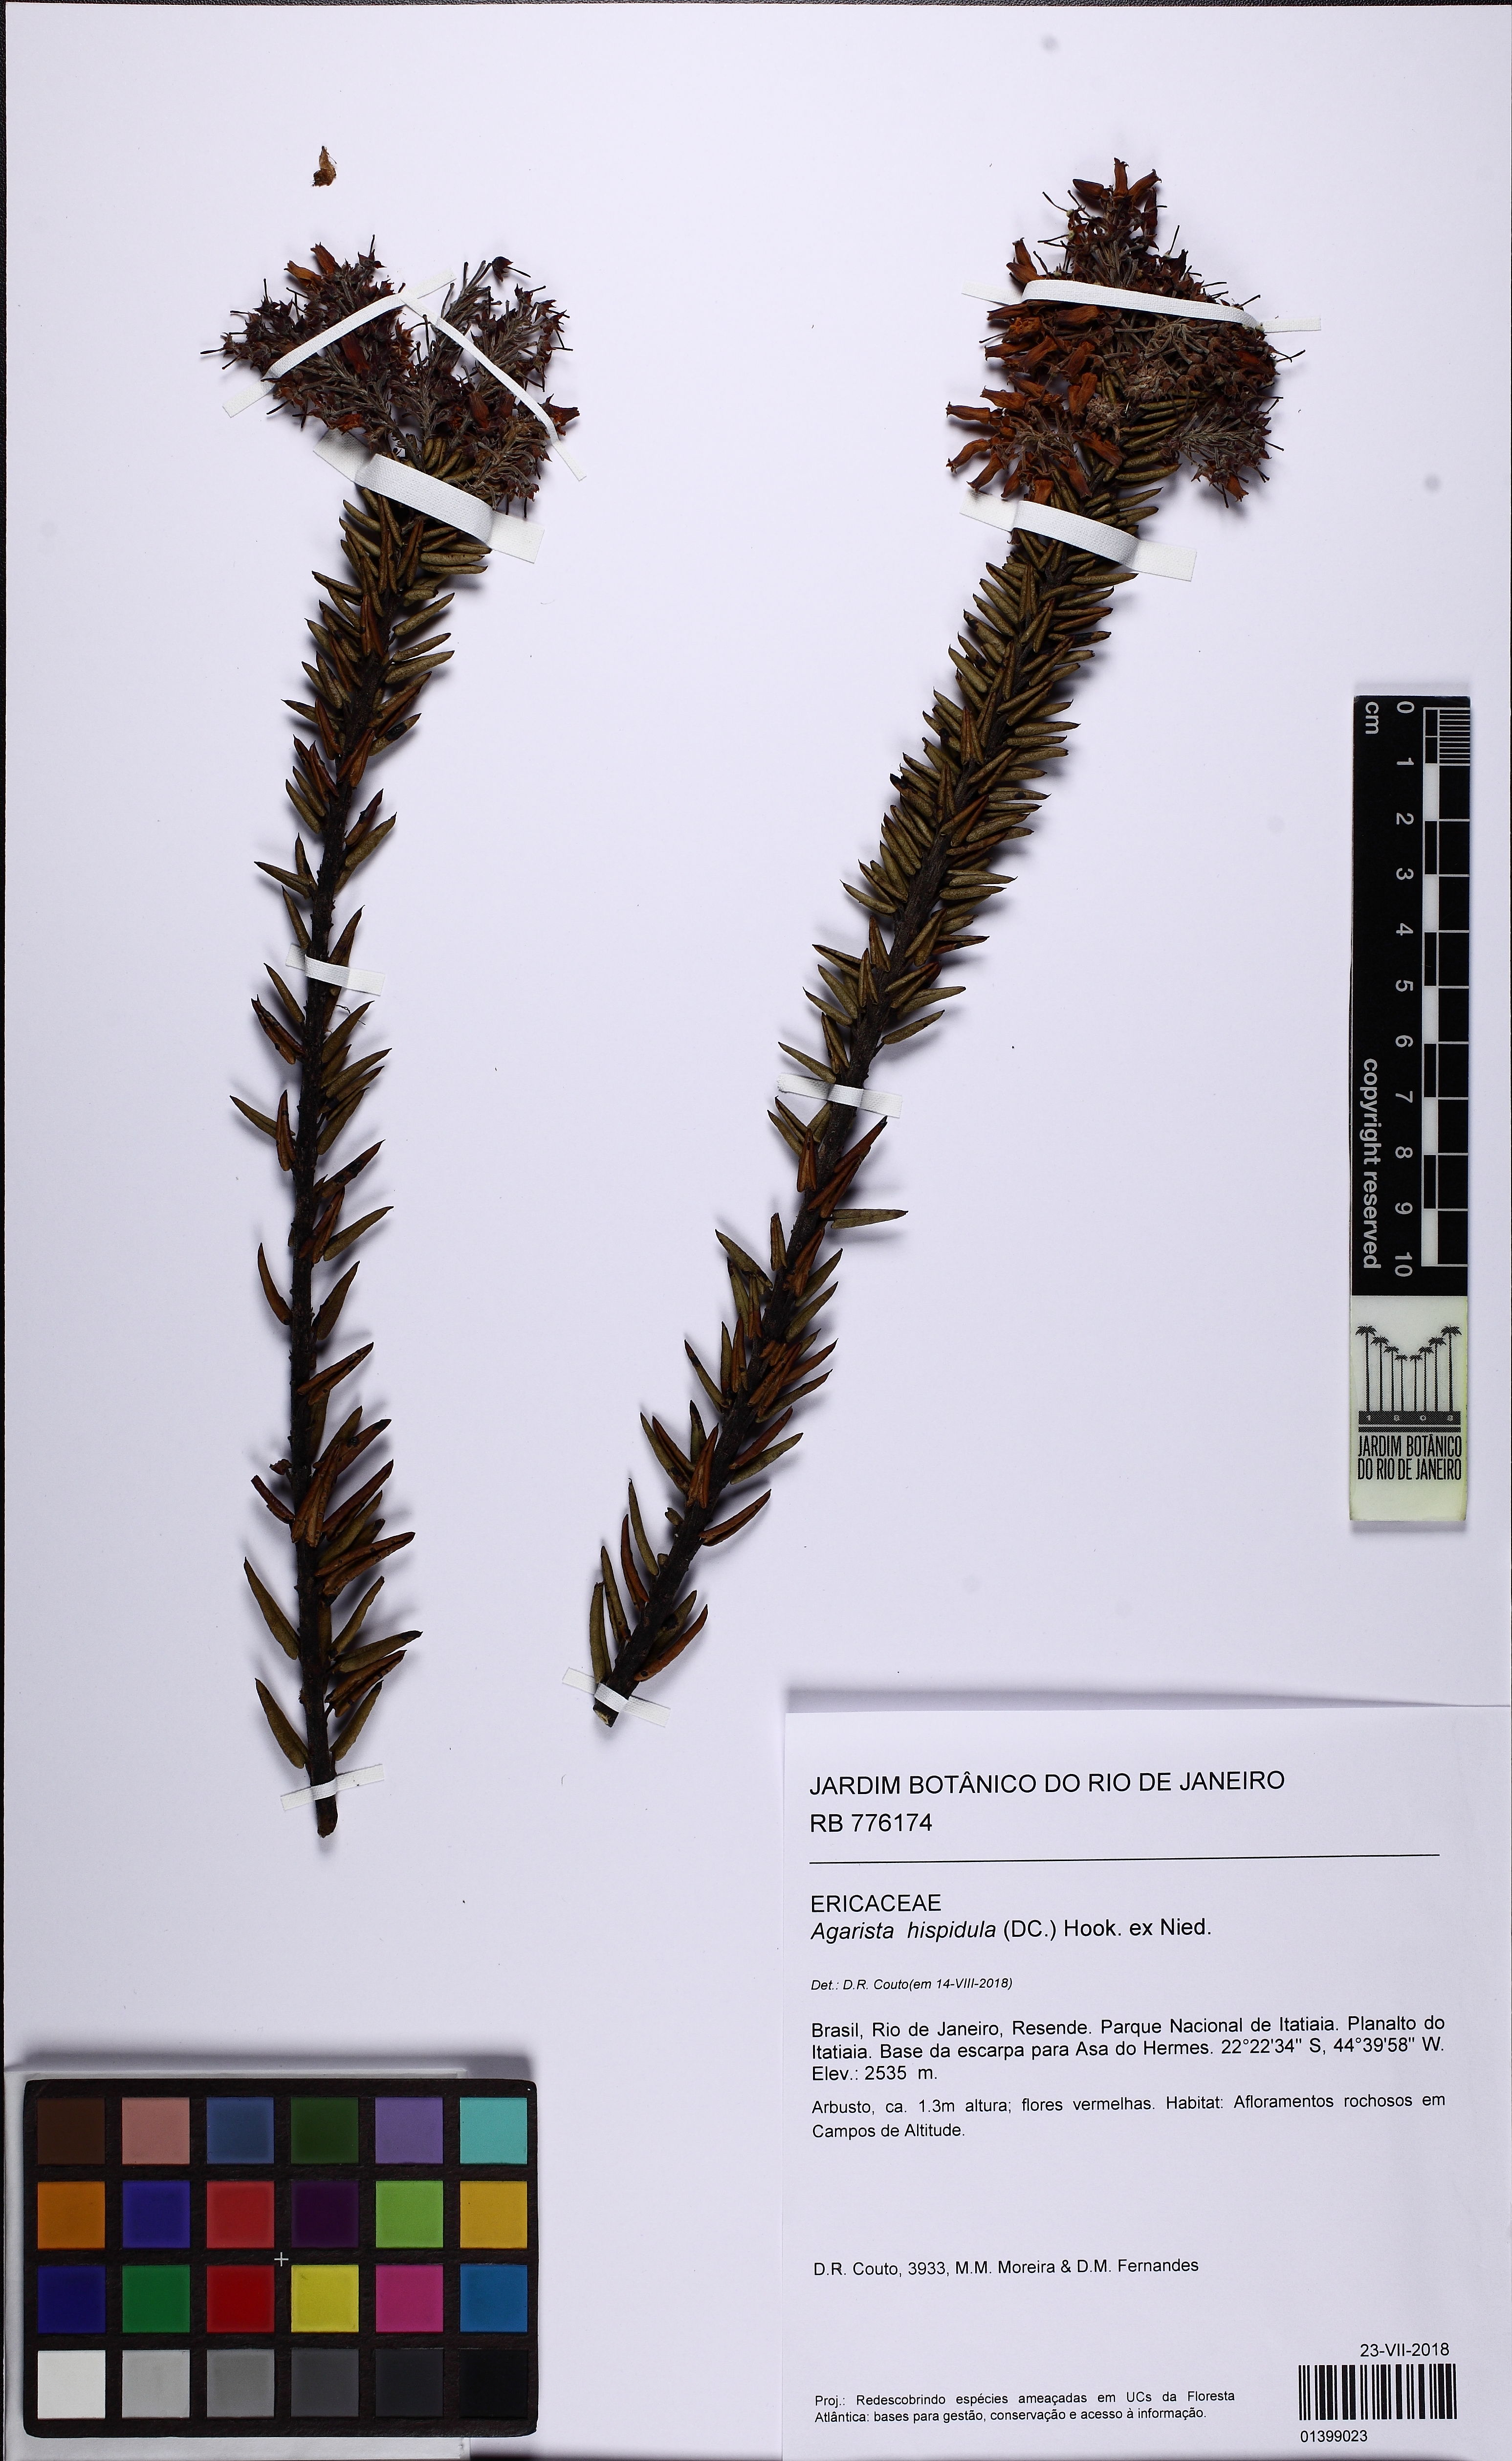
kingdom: Plantae
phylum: Tracheophyta
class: Magnoliopsida
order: Ericales
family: Ericaceae
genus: Agarista
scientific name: Agarista hispidula
